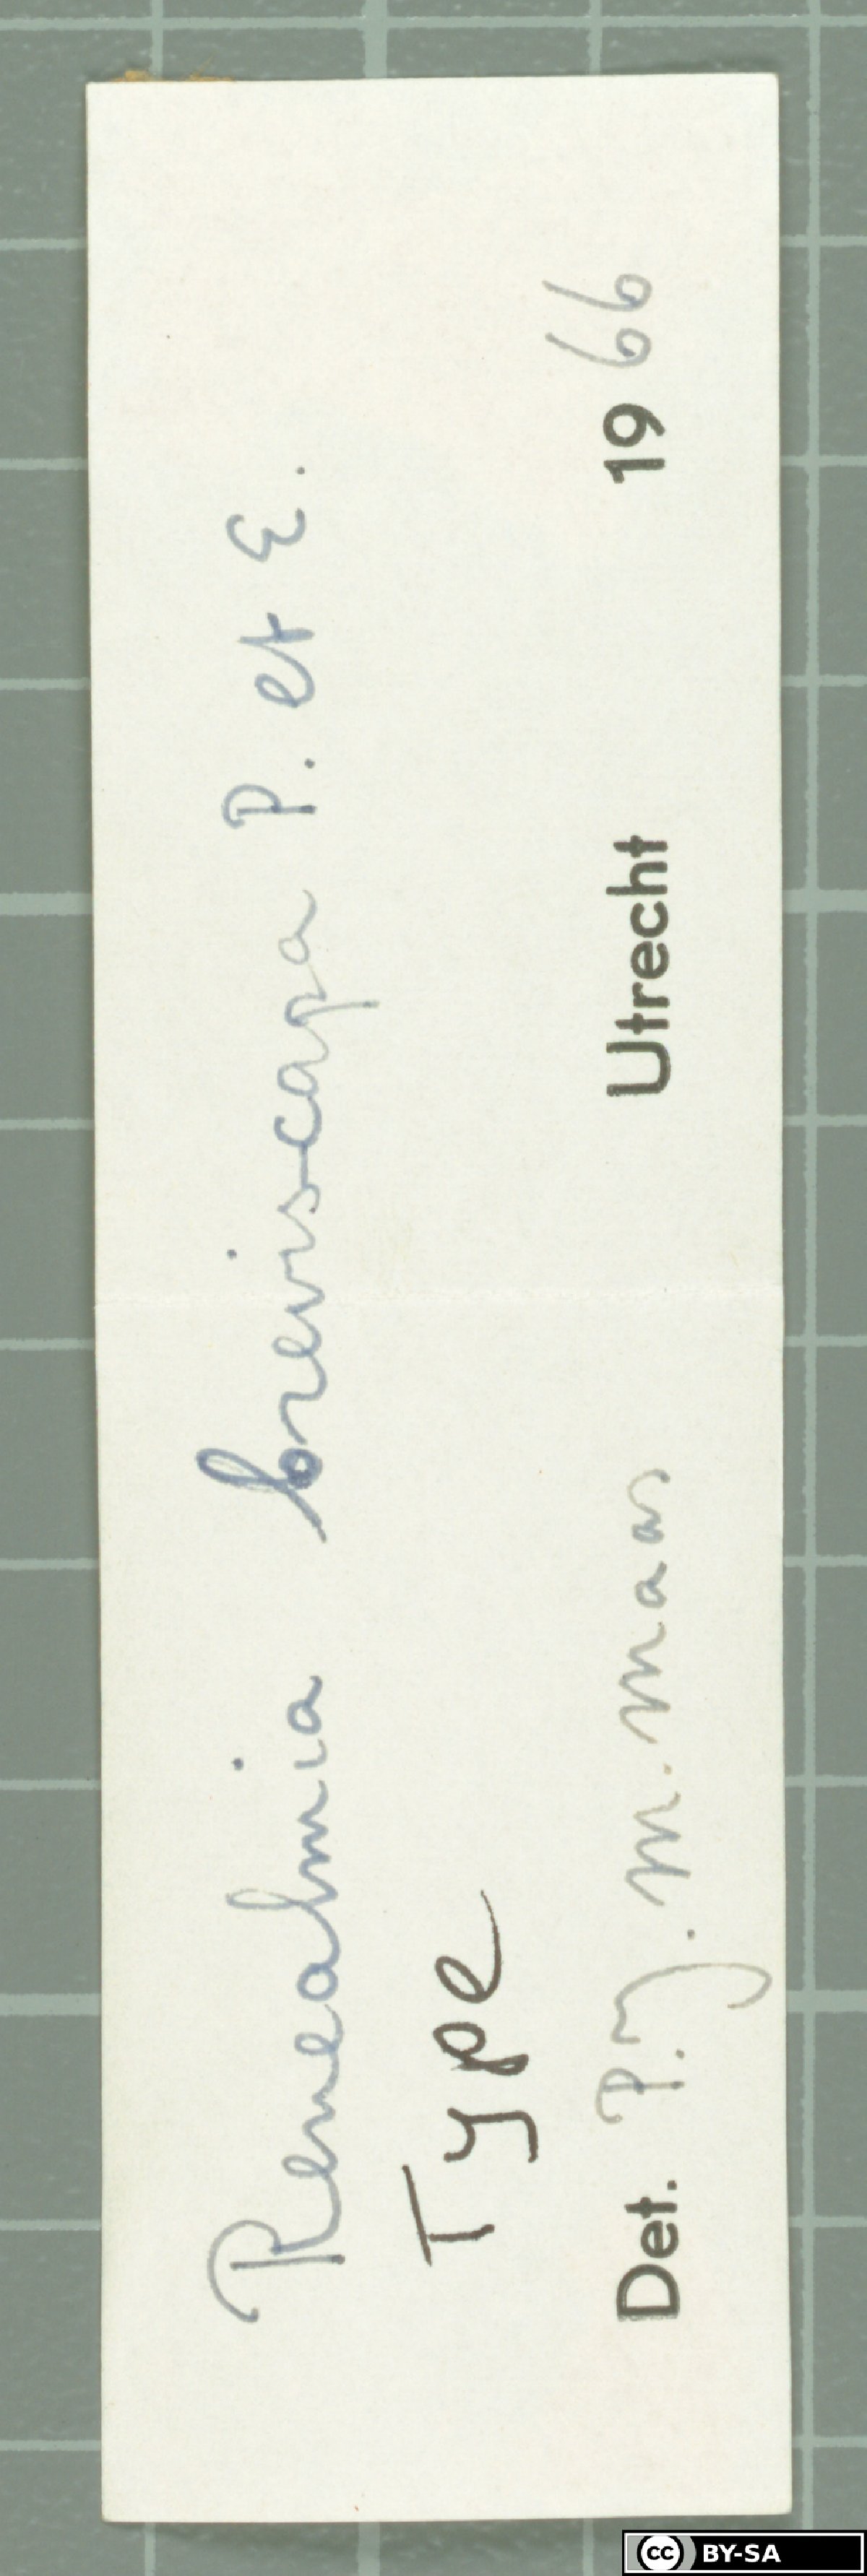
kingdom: Plantae
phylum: Tracheophyta
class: Liliopsida
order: Zingiberales
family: Zingiberaceae
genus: Renealmia
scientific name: Renealmia breviscapa
